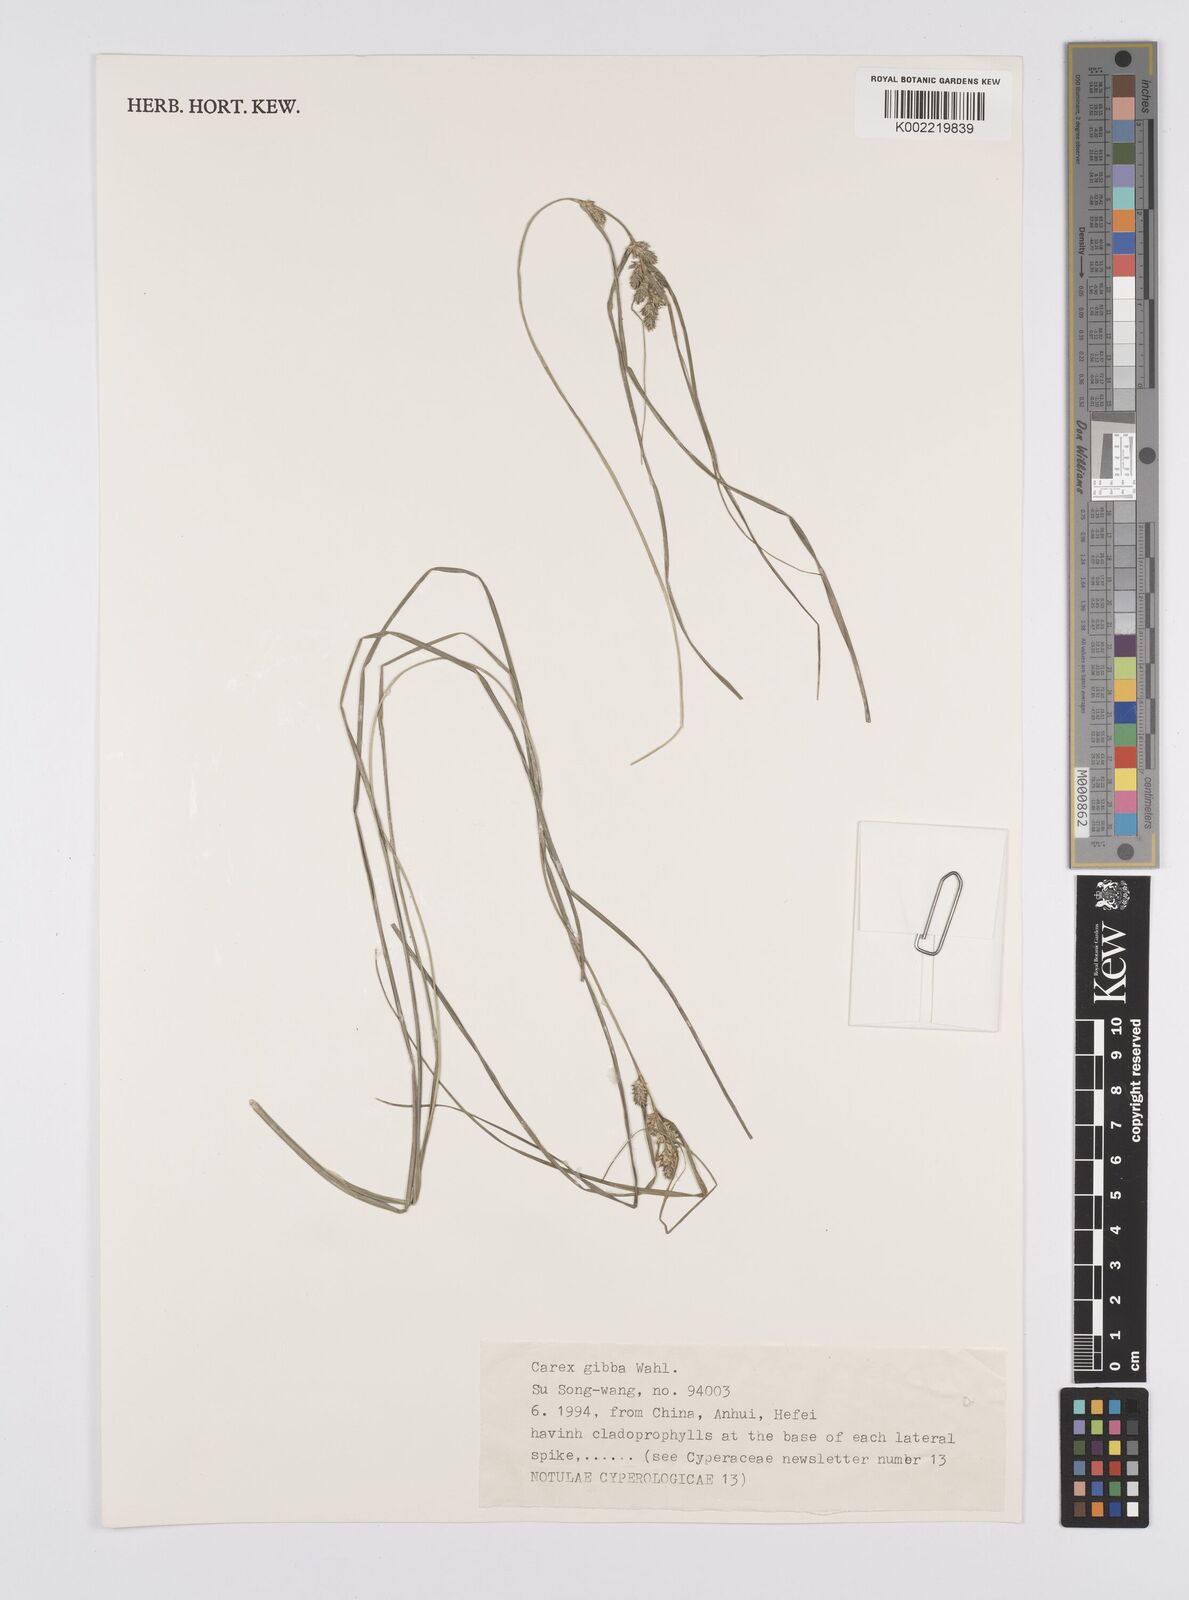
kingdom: Plantae
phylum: Tracheophyta
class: Liliopsida
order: Poales
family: Cyperaceae
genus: Carex
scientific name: Carex gibba
